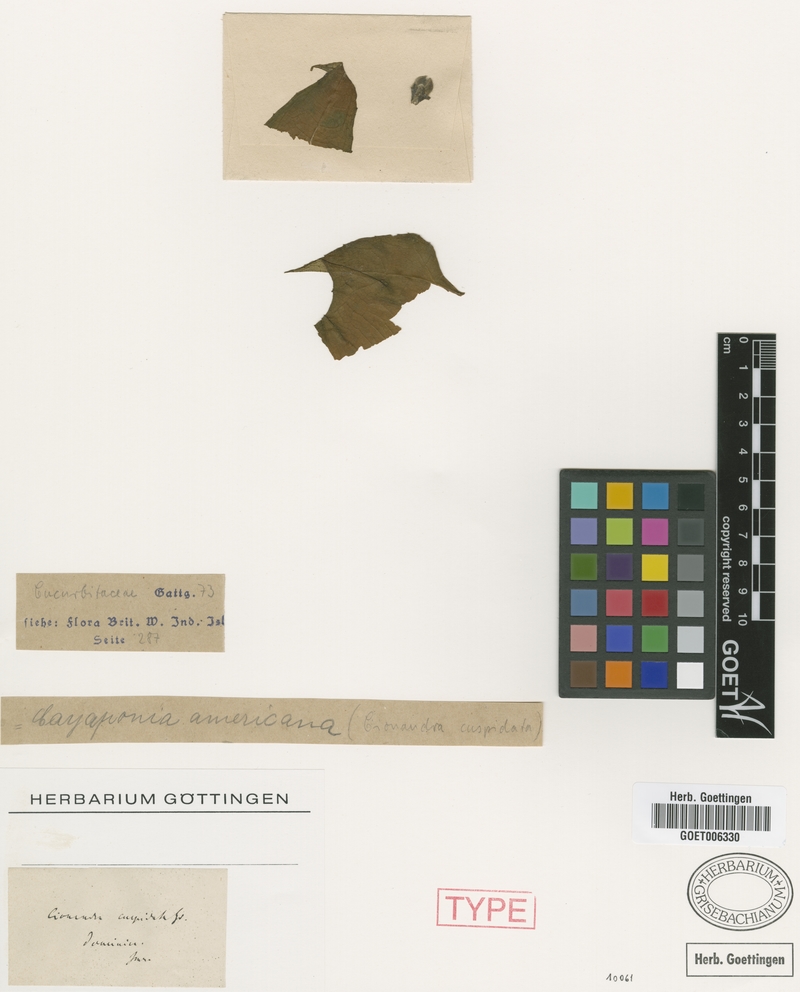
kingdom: Plantae
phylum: Tracheophyta
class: Magnoliopsida
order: Cucurbitales
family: Cucurbitaceae
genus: Cayaponia
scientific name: Cayaponia racemosa
